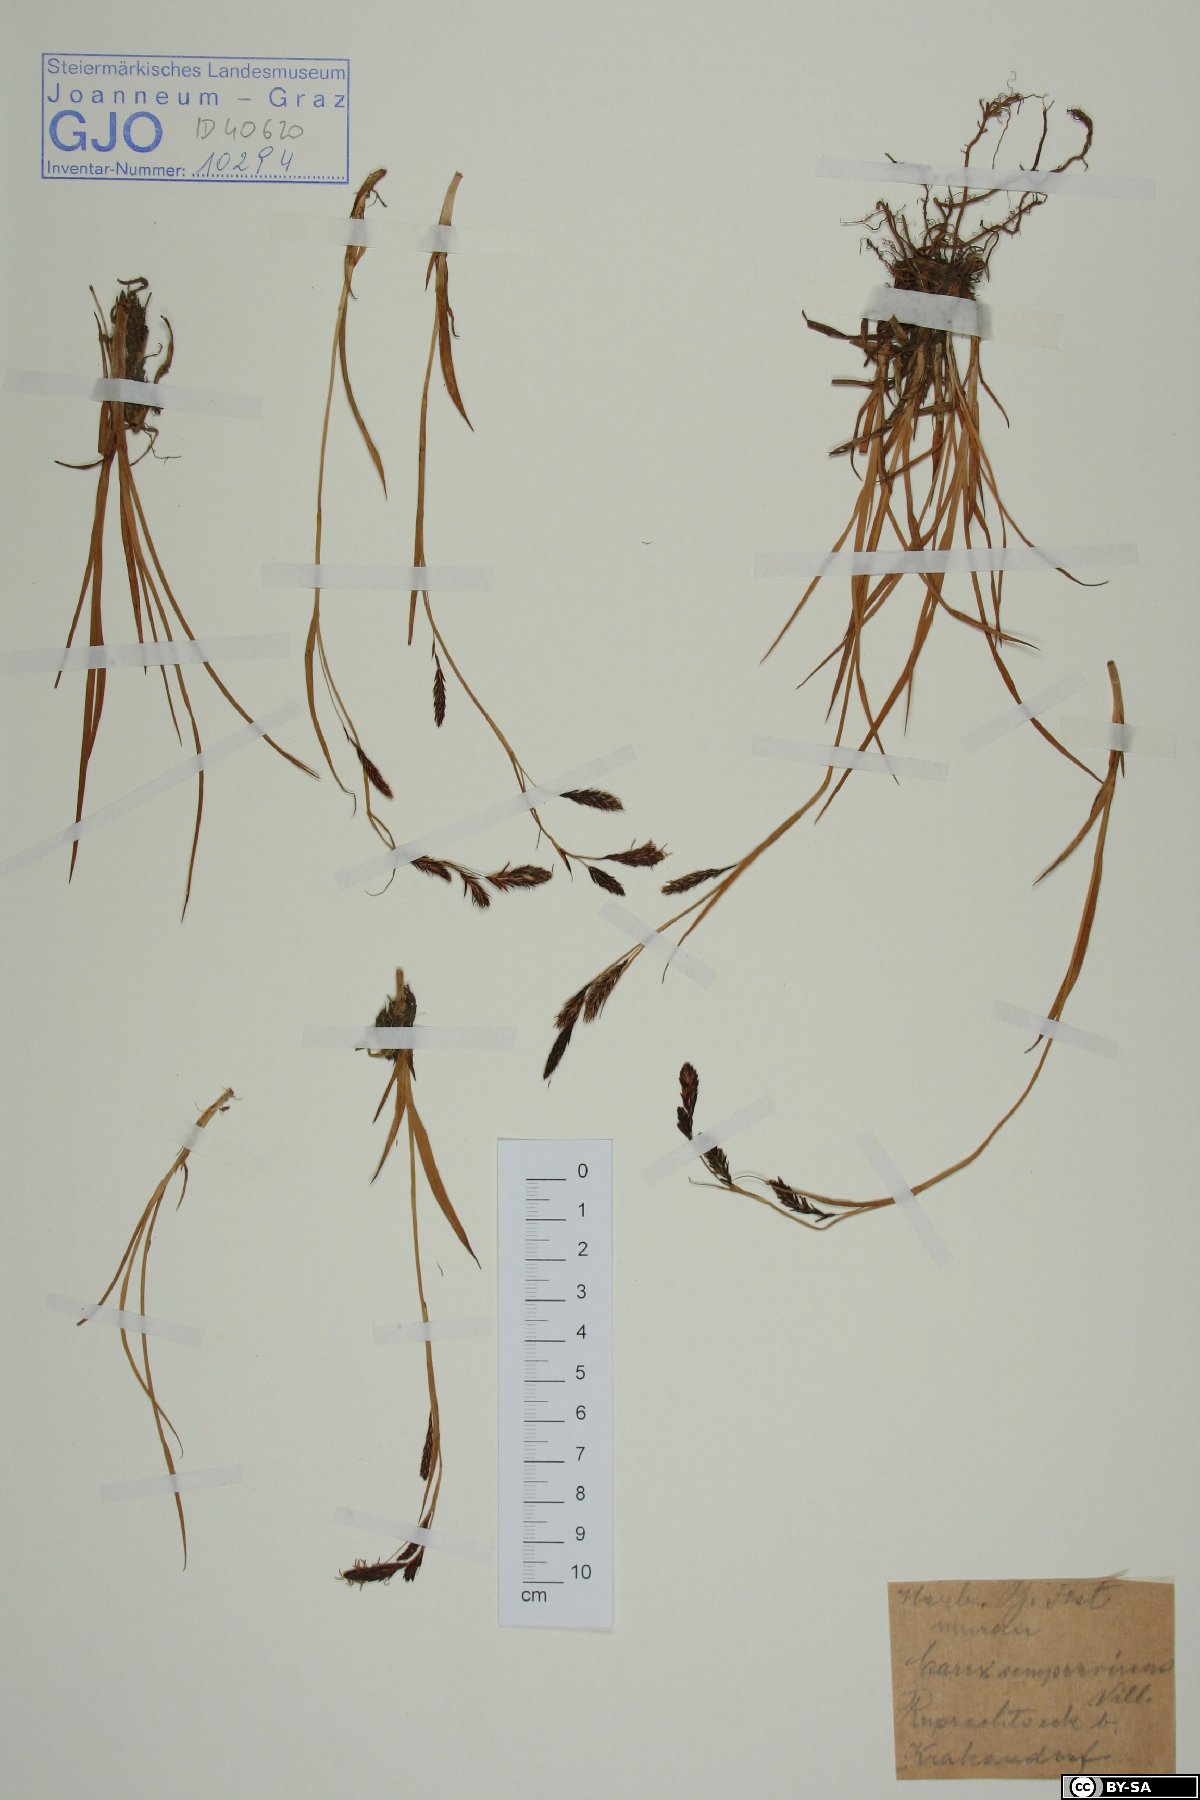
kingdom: Plantae
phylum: Tracheophyta
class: Liliopsida
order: Poales
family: Cyperaceae
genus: Carex
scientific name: Carex sempervirens
